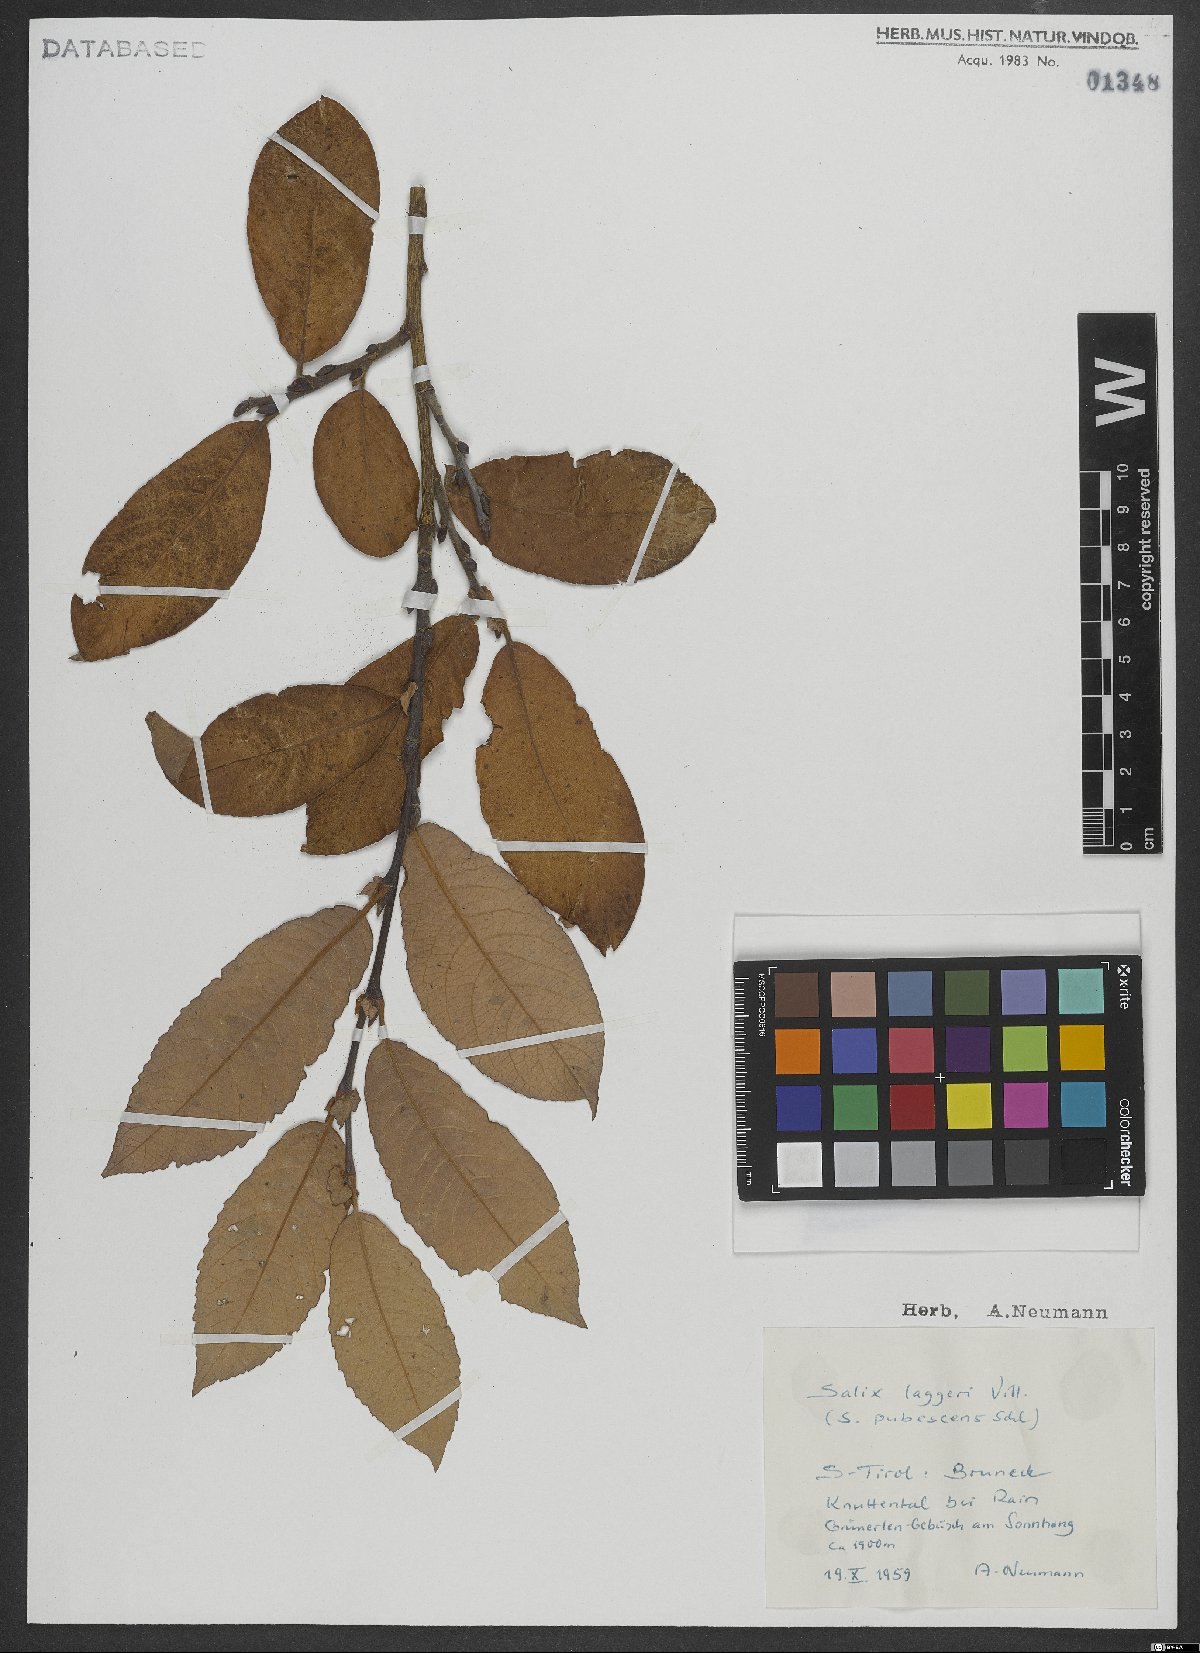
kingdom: Plantae
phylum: Tracheophyta
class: Magnoliopsida
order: Malpighiales
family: Salicaceae
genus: Salix
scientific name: Salix laggeri
